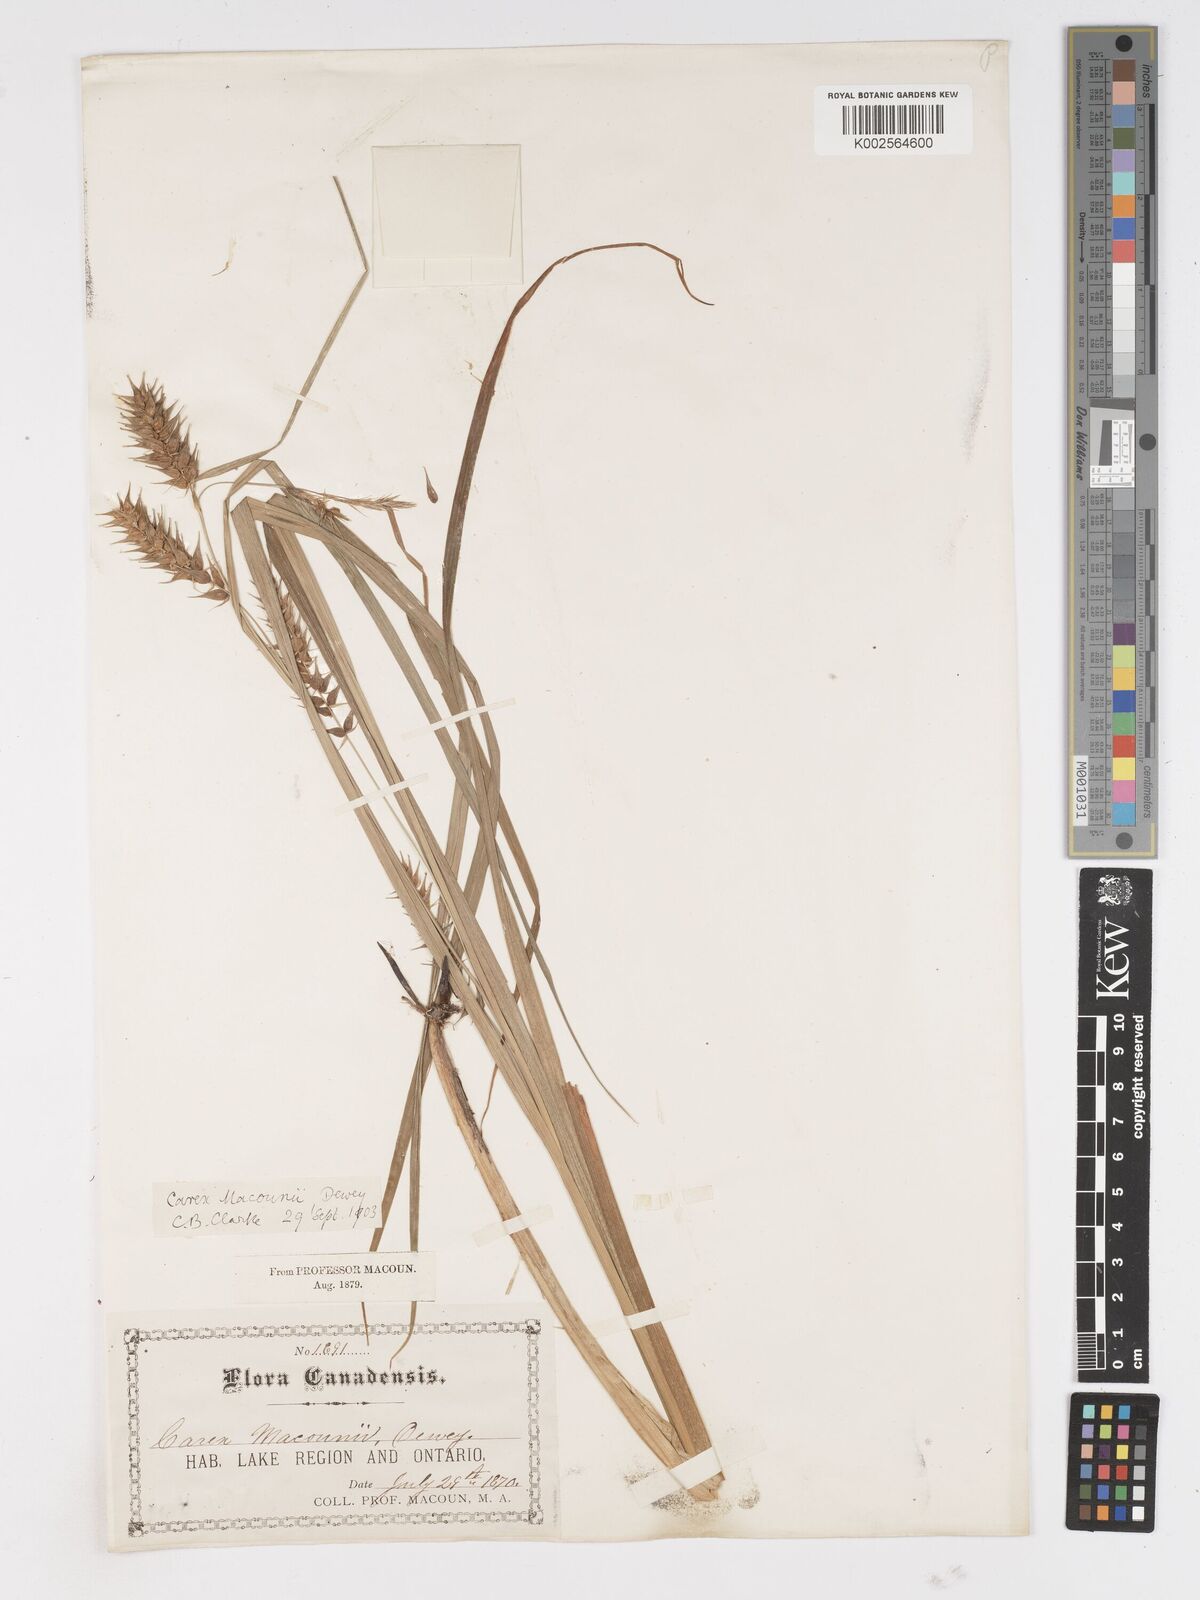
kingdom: Plantae
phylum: Tracheophyta
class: Liliopsida
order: Poales
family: Cyperaceae
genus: Carex
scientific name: Carex lupulina
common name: Hop sedge
